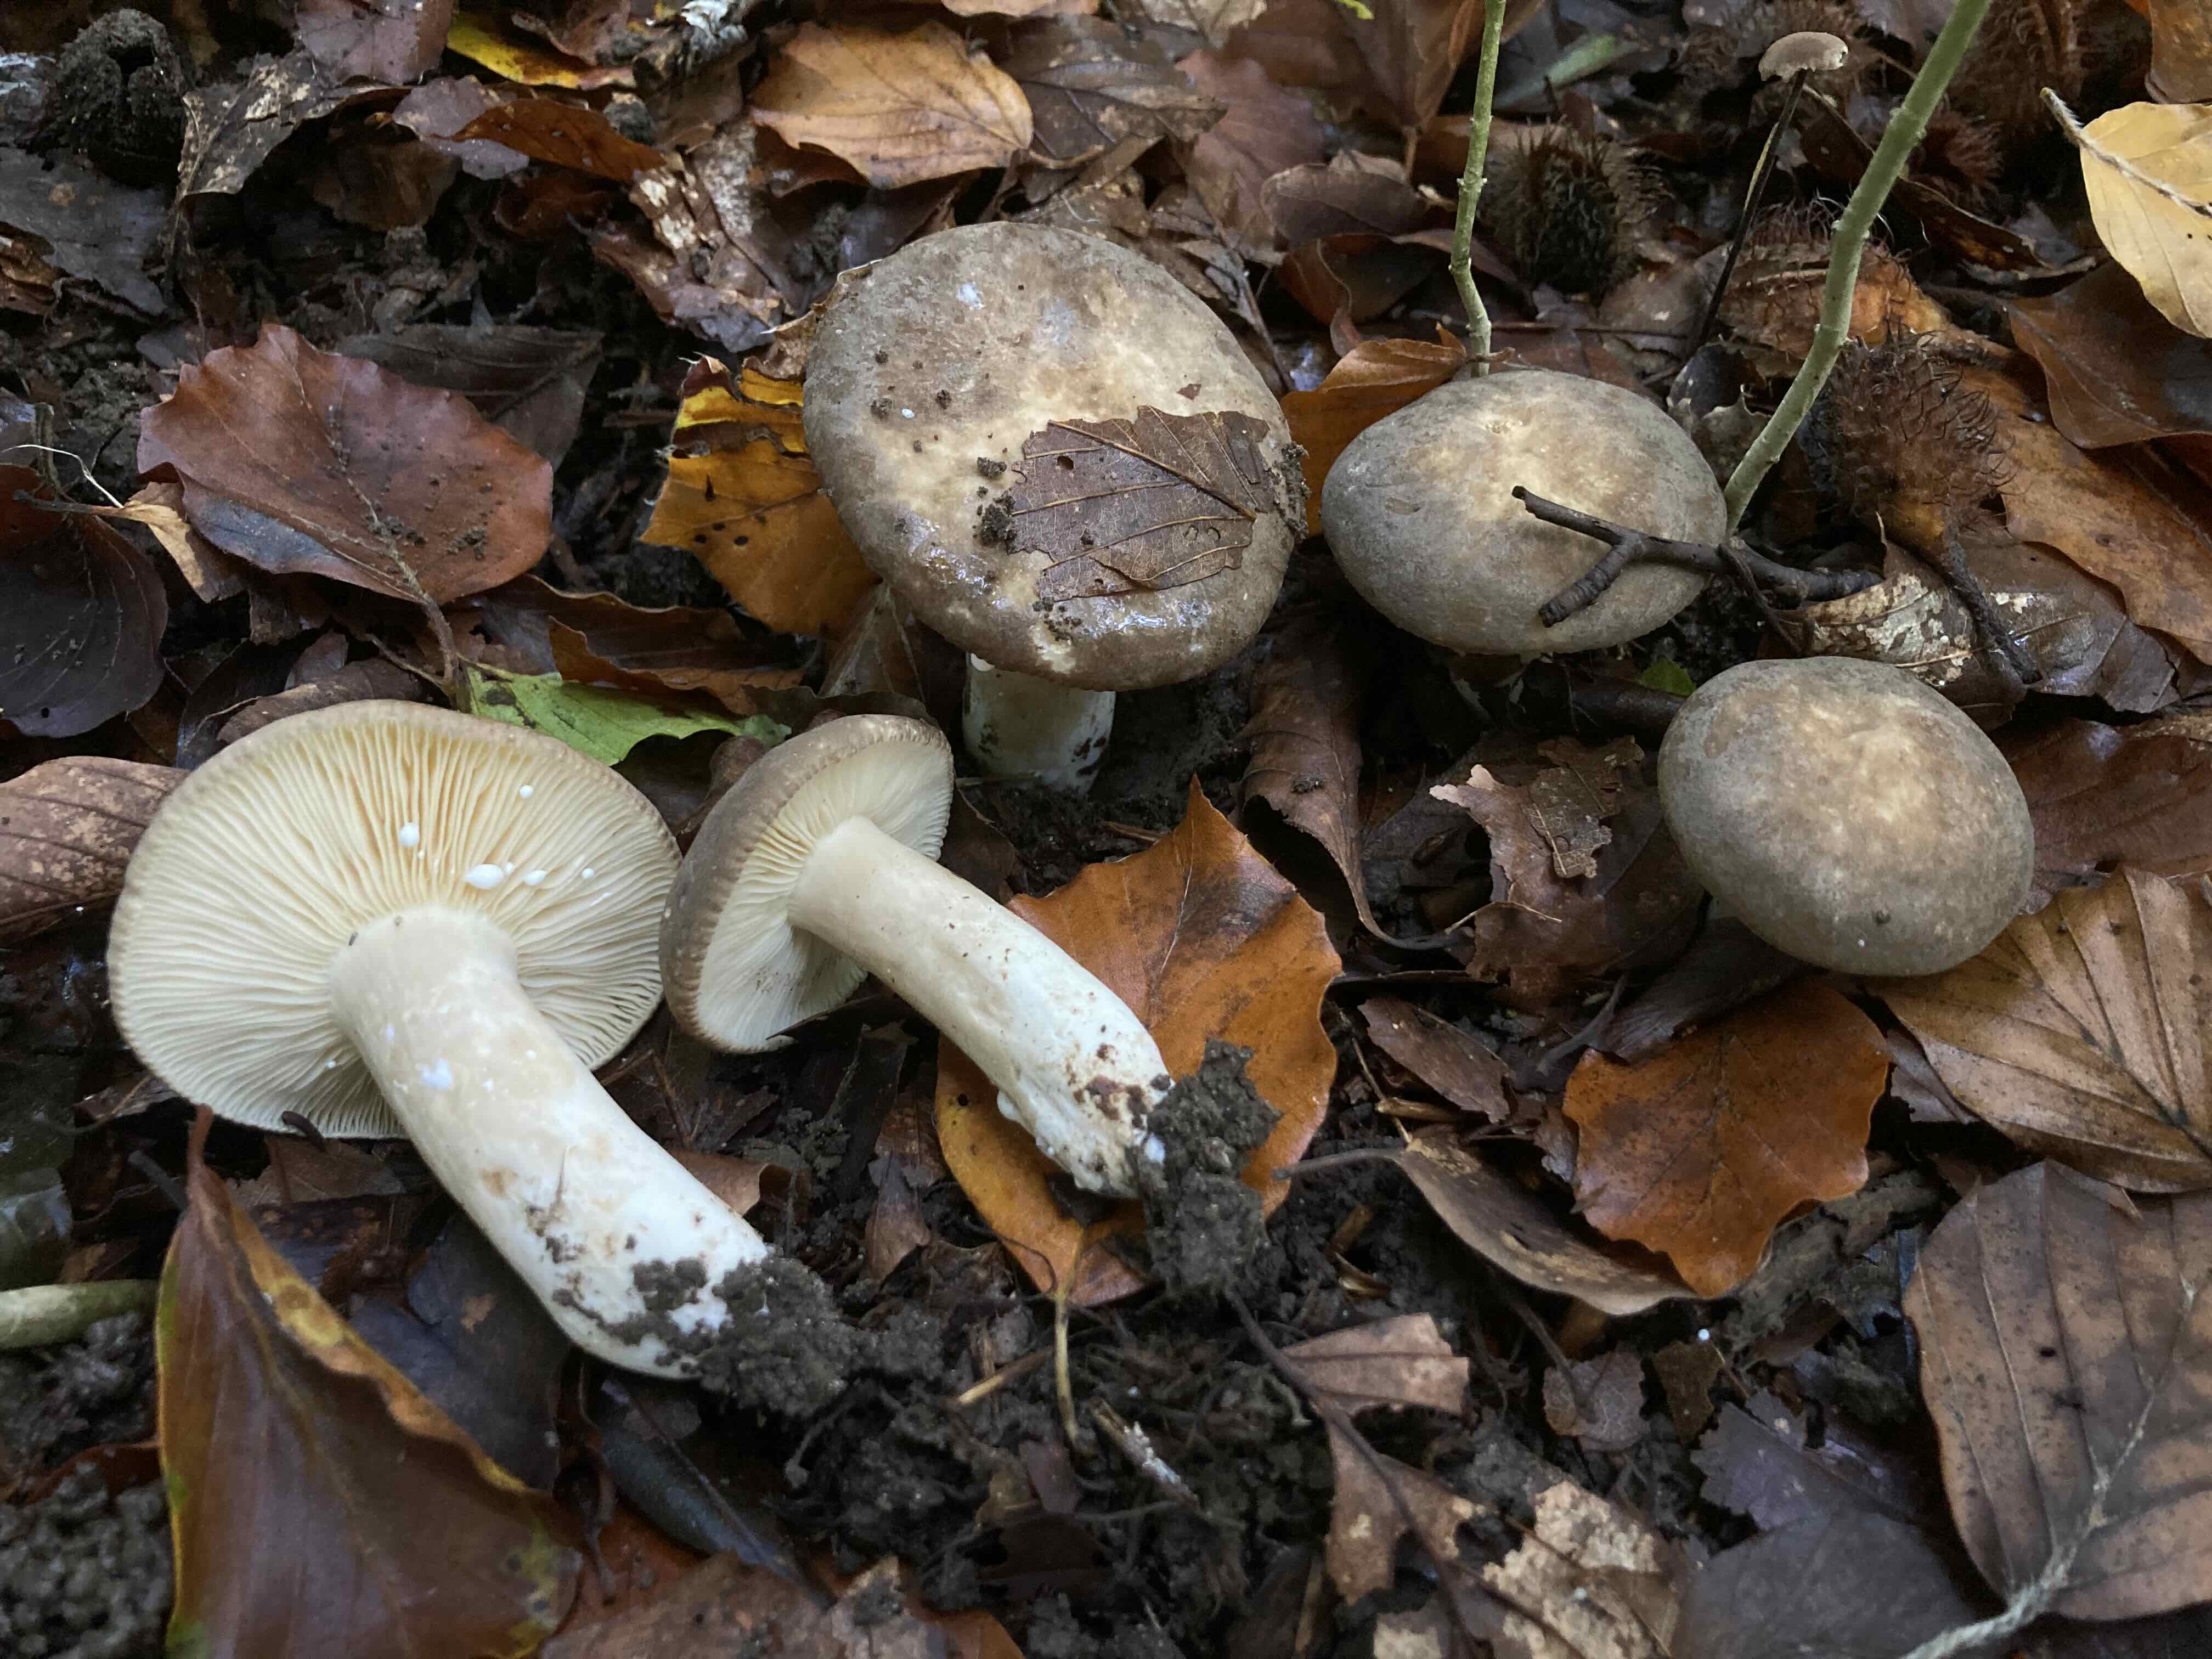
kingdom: Fungi
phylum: Basidiomycota
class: Agaricomycetes
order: Russulales
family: Russulaceae
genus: Lactarius
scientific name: Lactarius pterosporus
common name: vingesporet mælkehat
